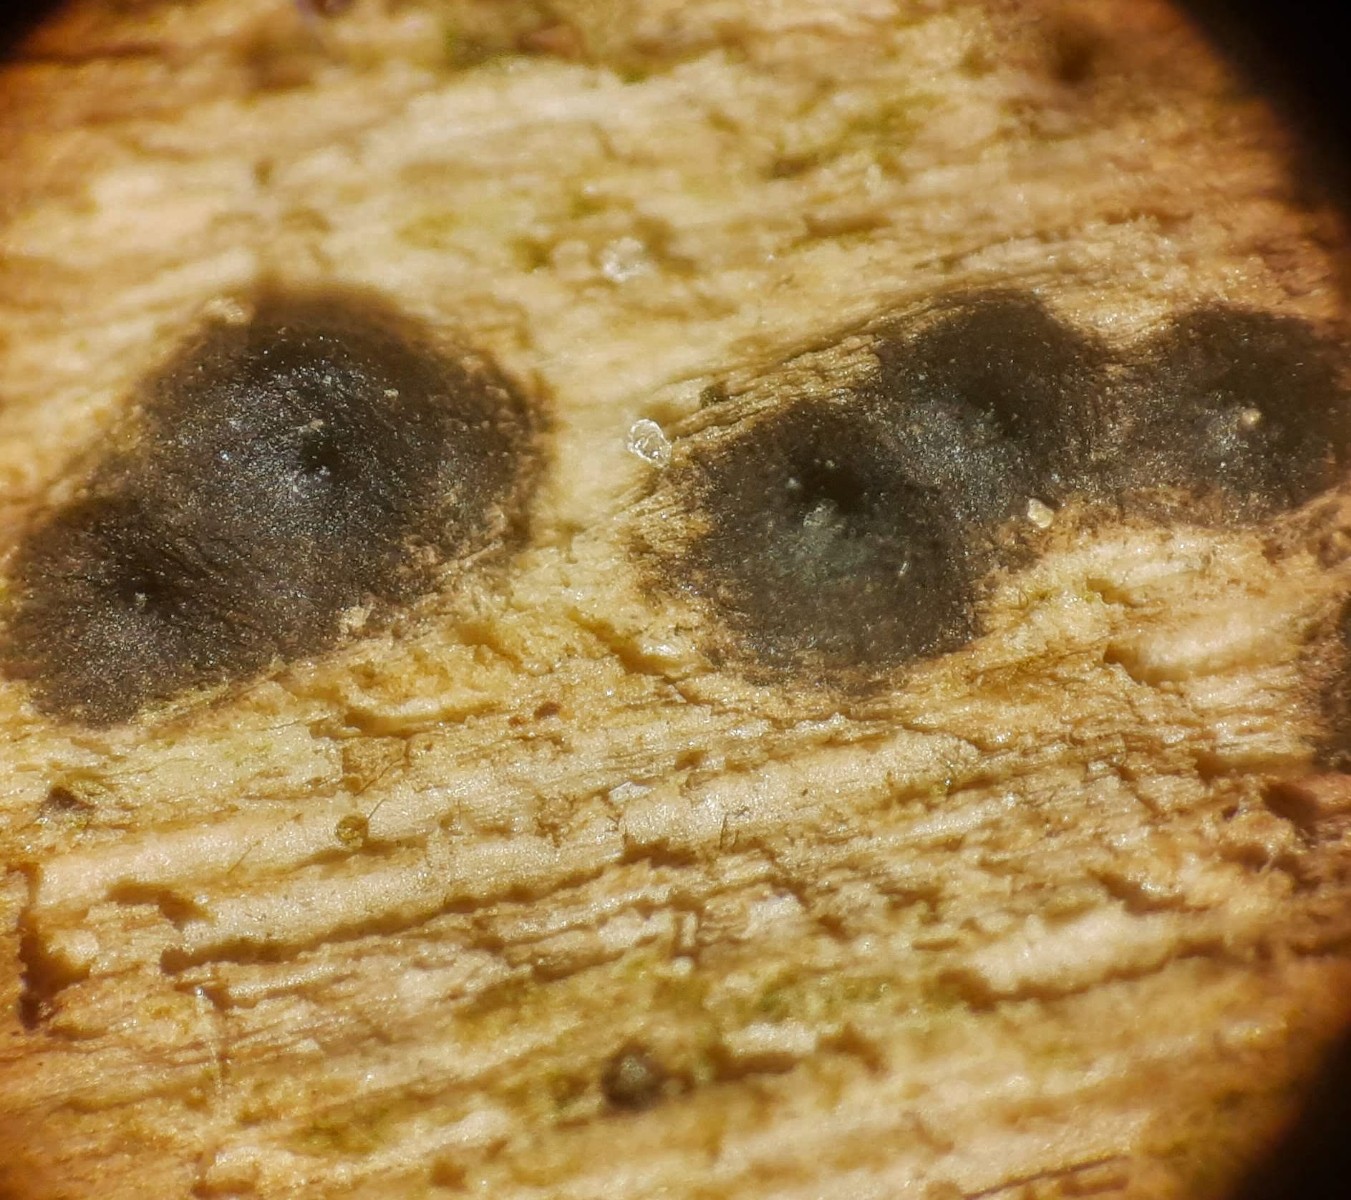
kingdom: Fungi
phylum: Ascomycota
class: Sordariomycetes
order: Xylariales
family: Xylariaceae
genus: Nemania
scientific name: Nemania confluens
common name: indsænket kuldyne
